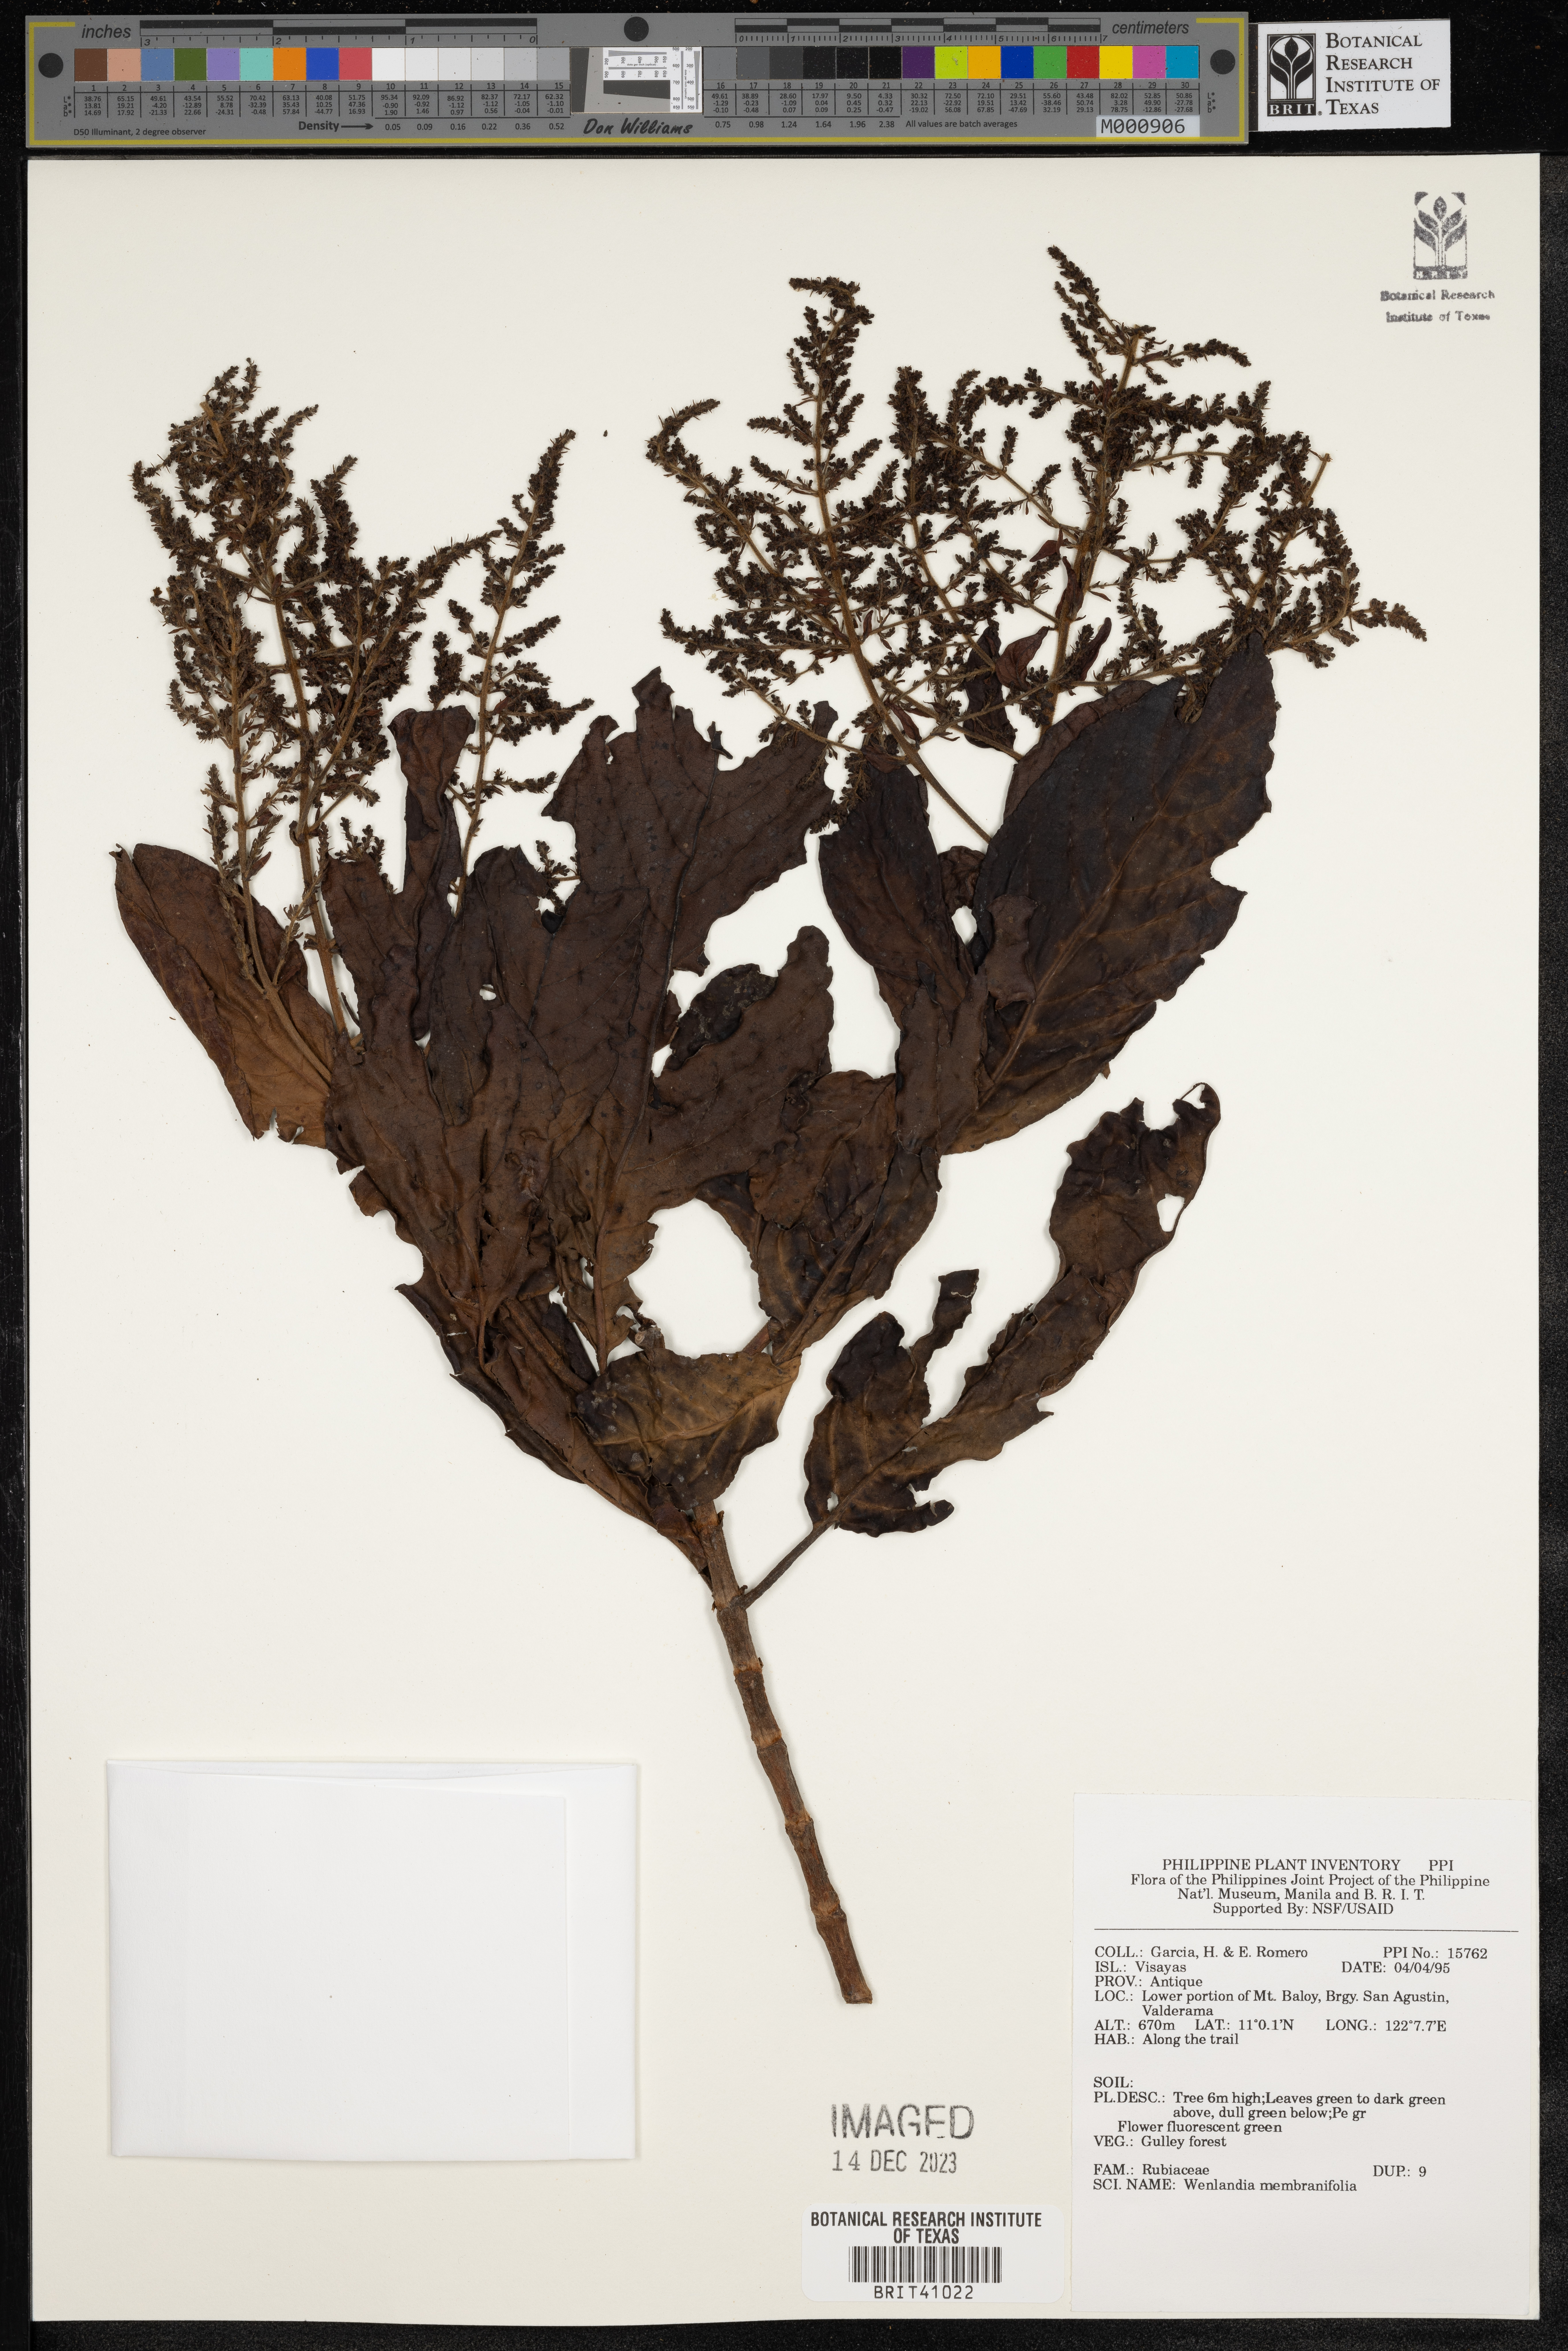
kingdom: Plantae
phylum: Tracheophyta
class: Magnoliopsida
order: Gentianales
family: Rubiaceae
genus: Wendlandia
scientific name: Wendlandia luzoniensis
